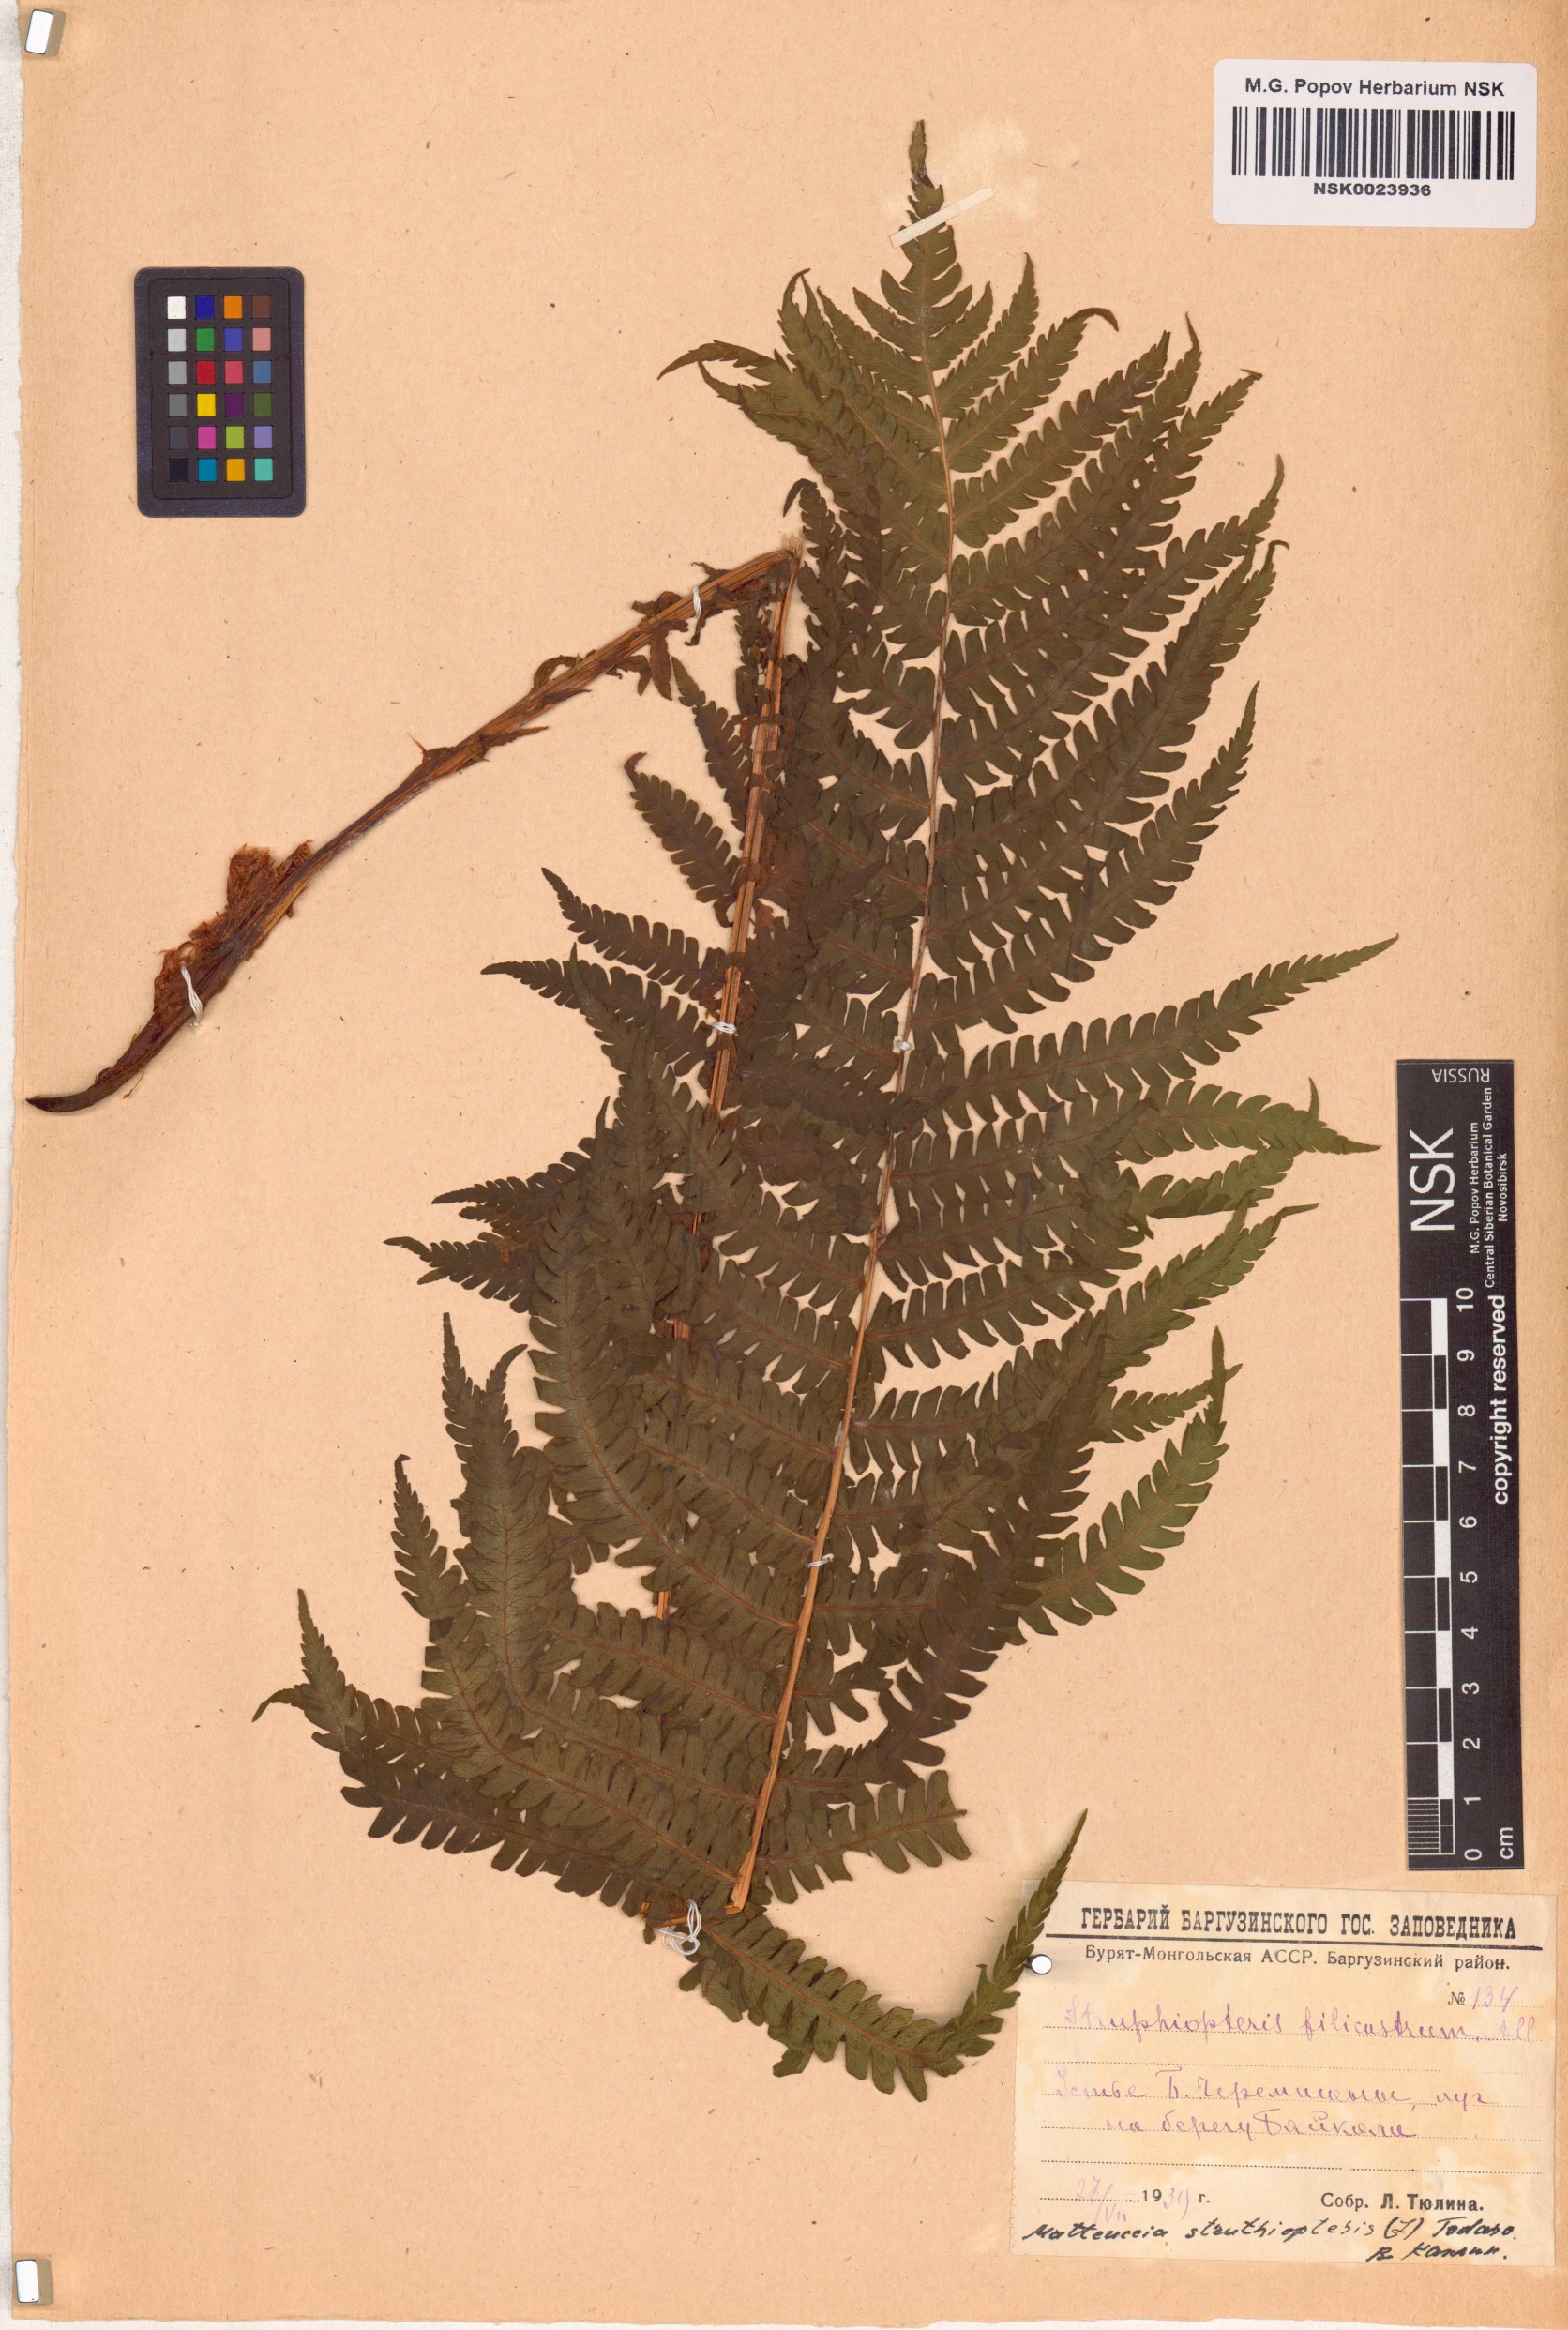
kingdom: Plantae
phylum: Tracheophyta
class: Polypodiopsida
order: Polypodiales
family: Onocleaceae
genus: Matteuccia
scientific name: Matteuccia struthiopteris
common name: Ostrich fern
